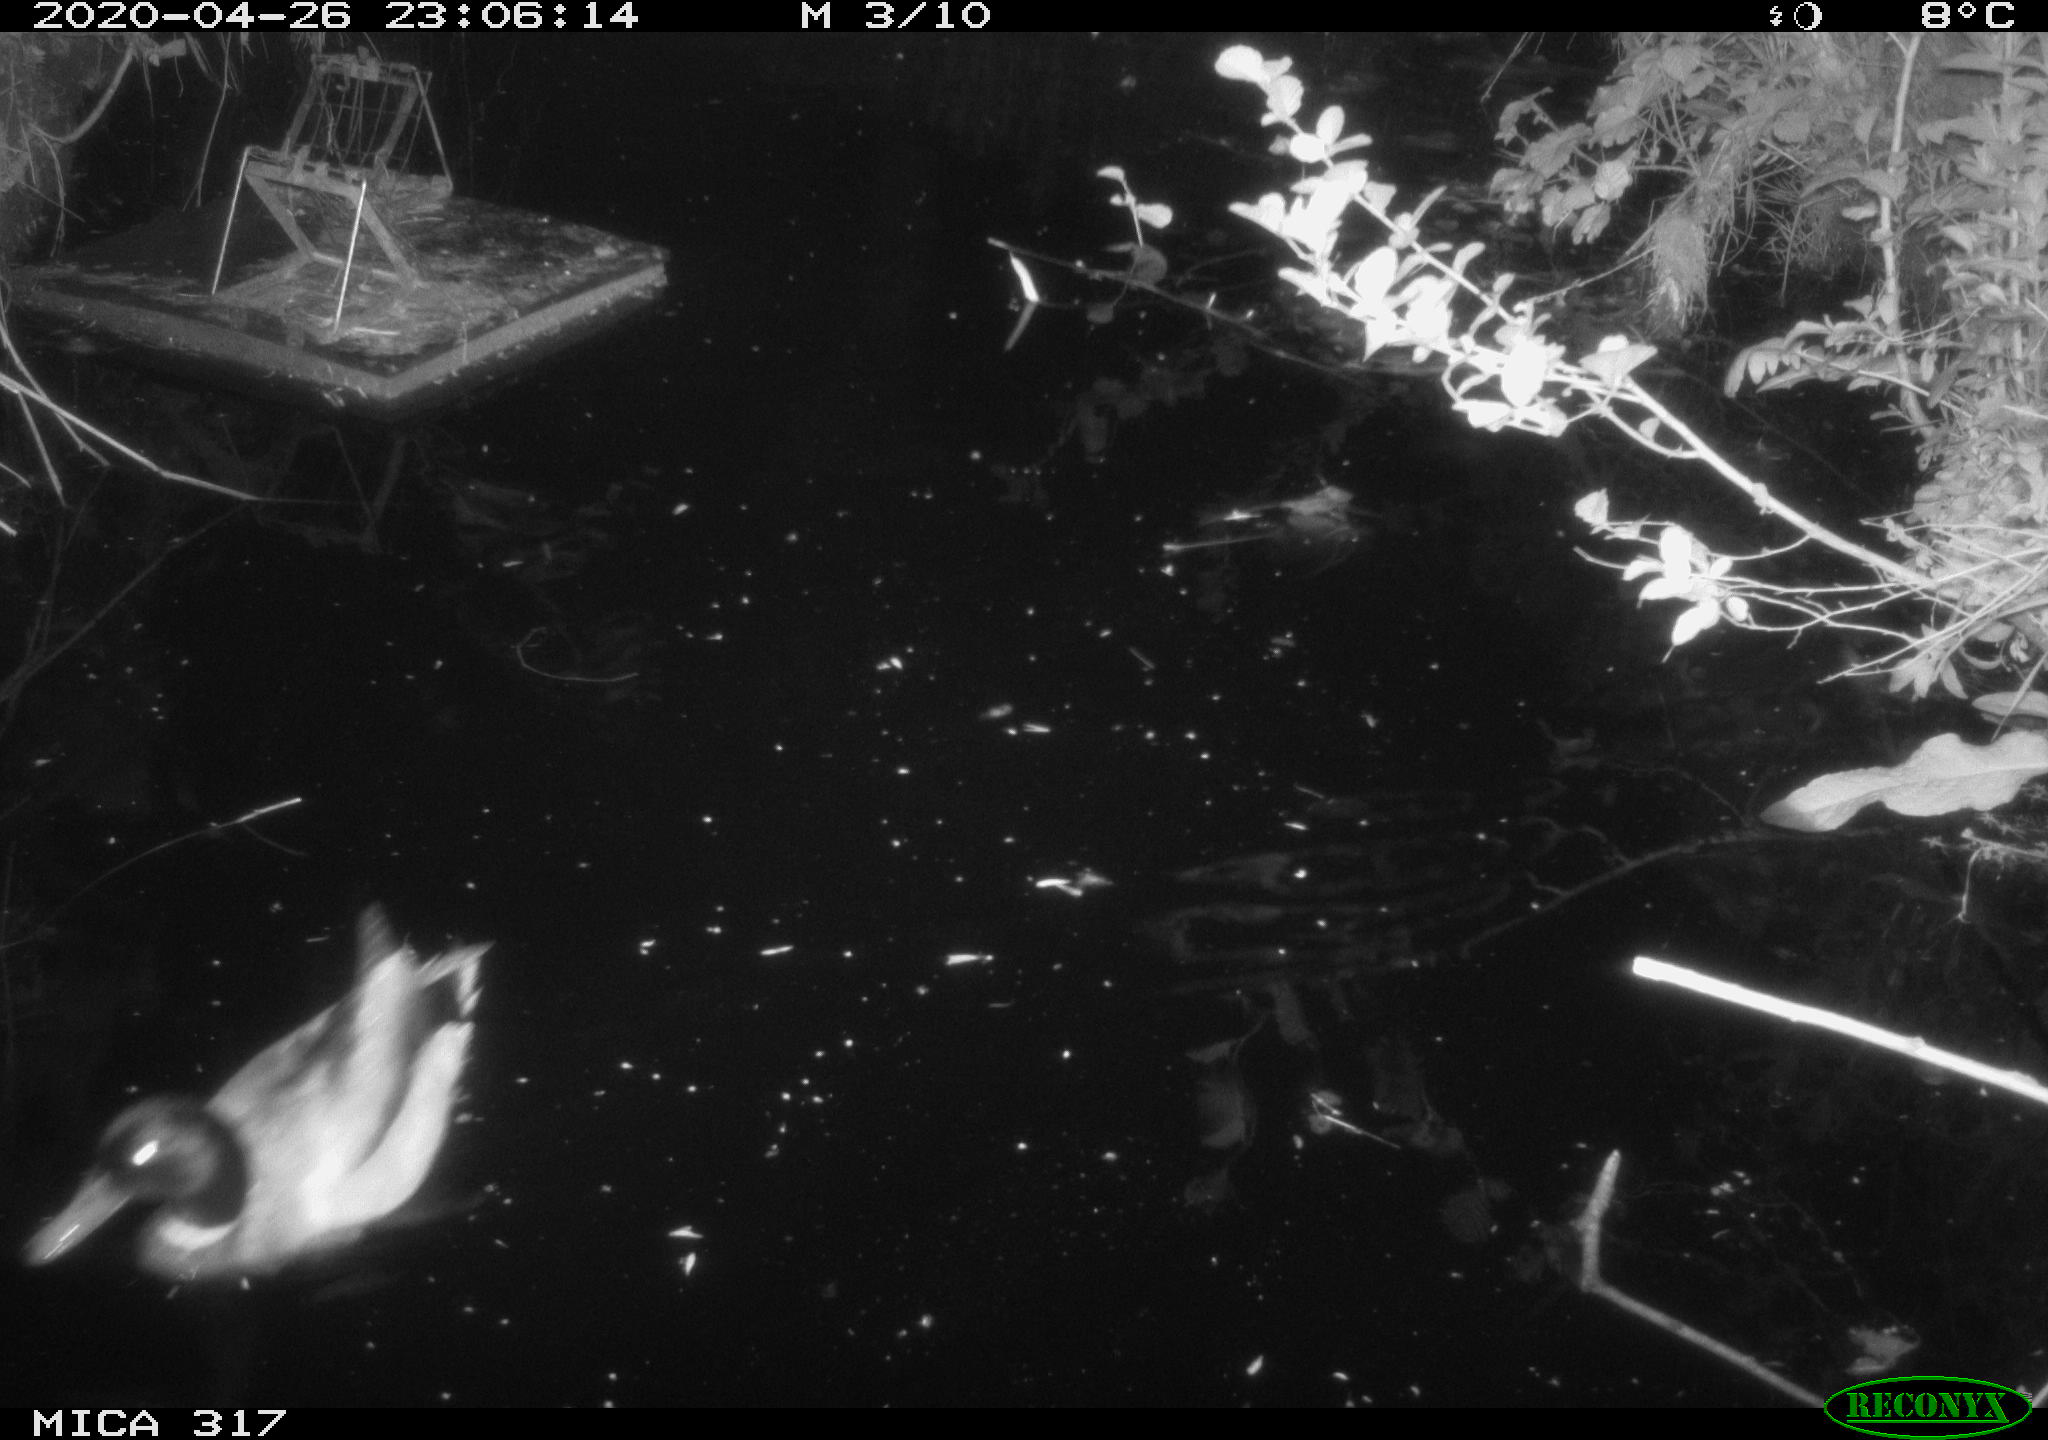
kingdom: Animalia
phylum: Chordata
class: Aves
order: Anseriformes
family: Anatidae
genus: Anas
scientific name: Anas platyrhynchos
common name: Mallard
